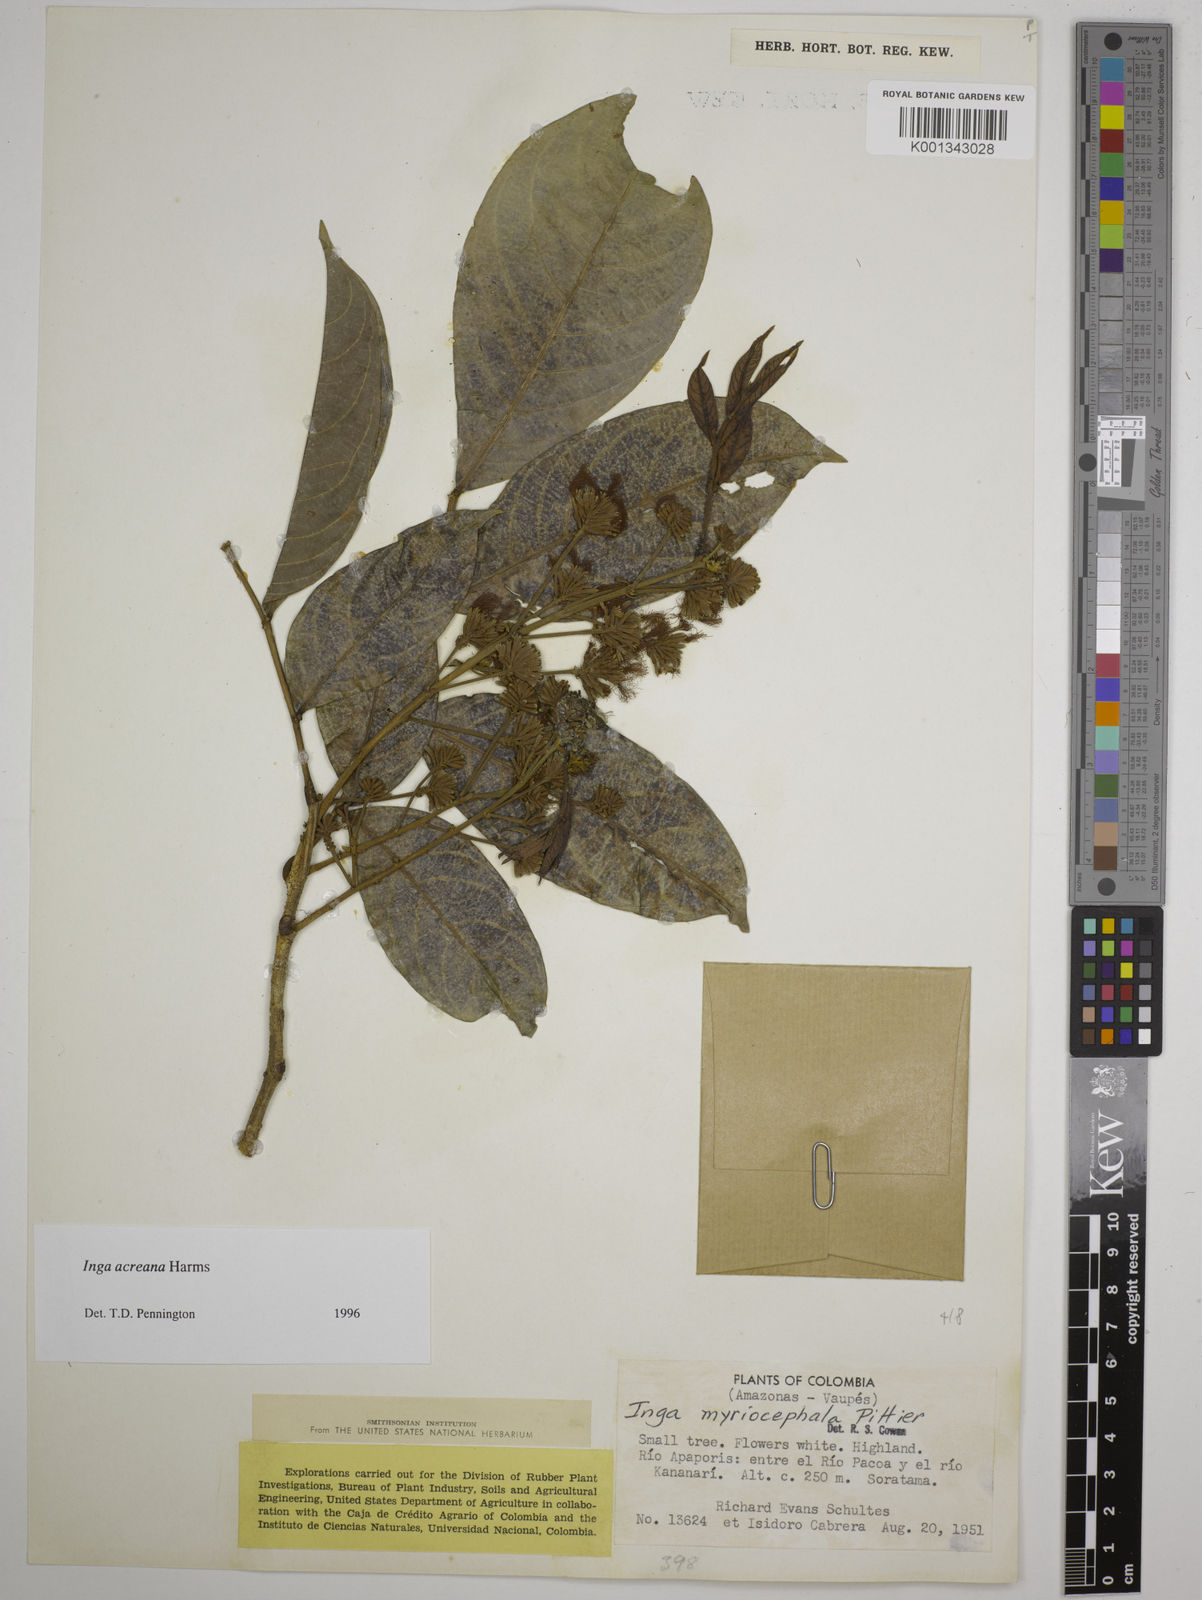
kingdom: Plantae
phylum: Tracheophyta
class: Magnoliopsida
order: Fabales
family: Fabaceae
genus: Inga
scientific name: Inga acreana
